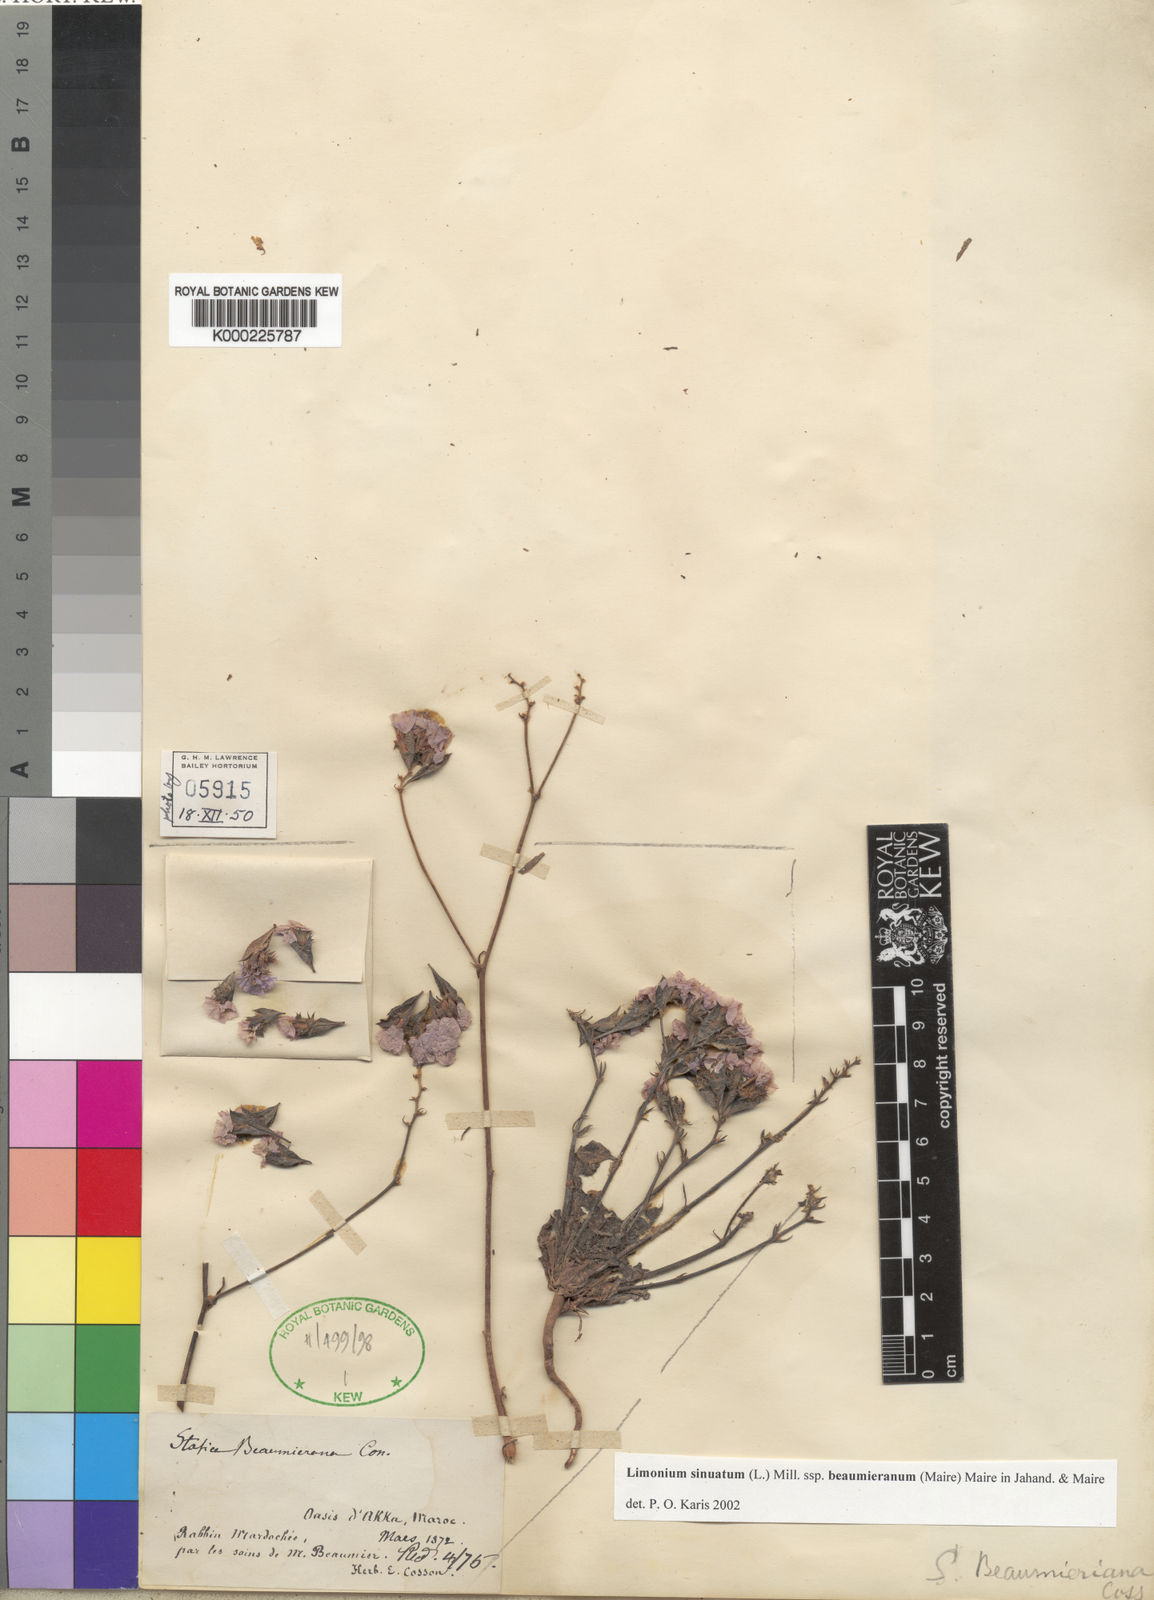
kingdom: Plantae
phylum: Tracheophyta
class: Magnoliopsida
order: Caryophyllales
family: Plumbaginaceae
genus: Limonium
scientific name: Limonium sinuatum
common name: Statice
